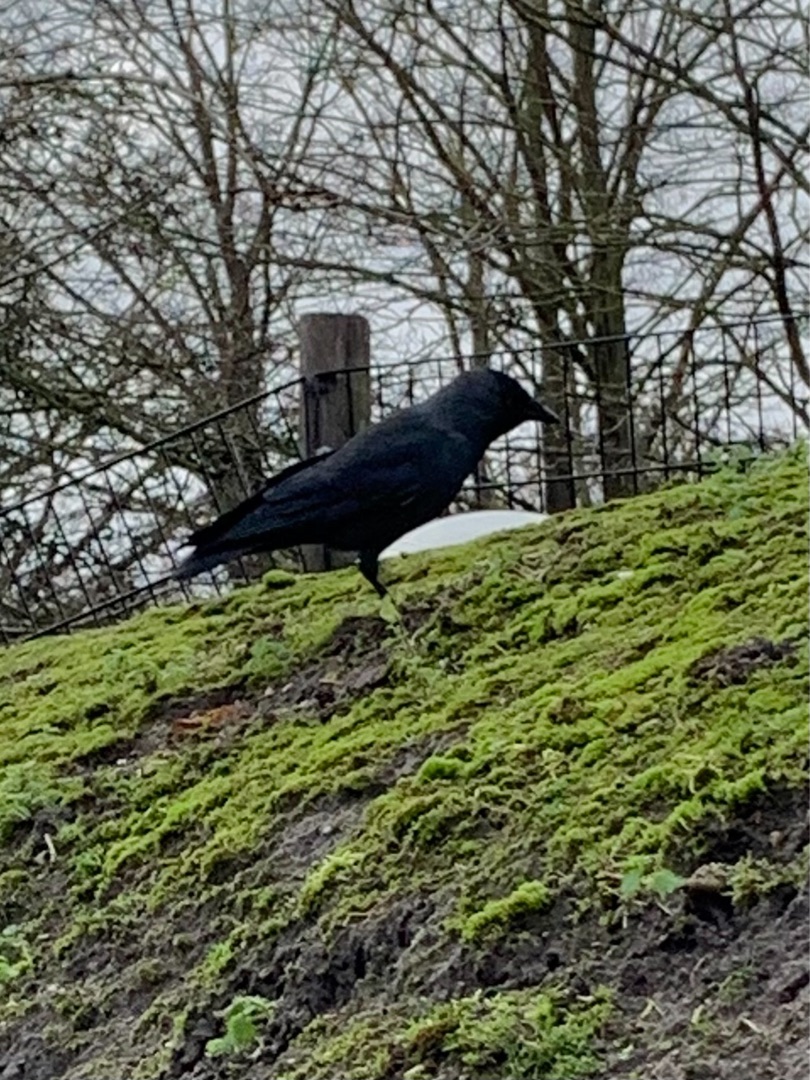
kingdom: Animalia
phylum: Chordata
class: Aves
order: Passeriformes
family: Corvidae
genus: Coloeus
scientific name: Coloeus monedula
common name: Allike
